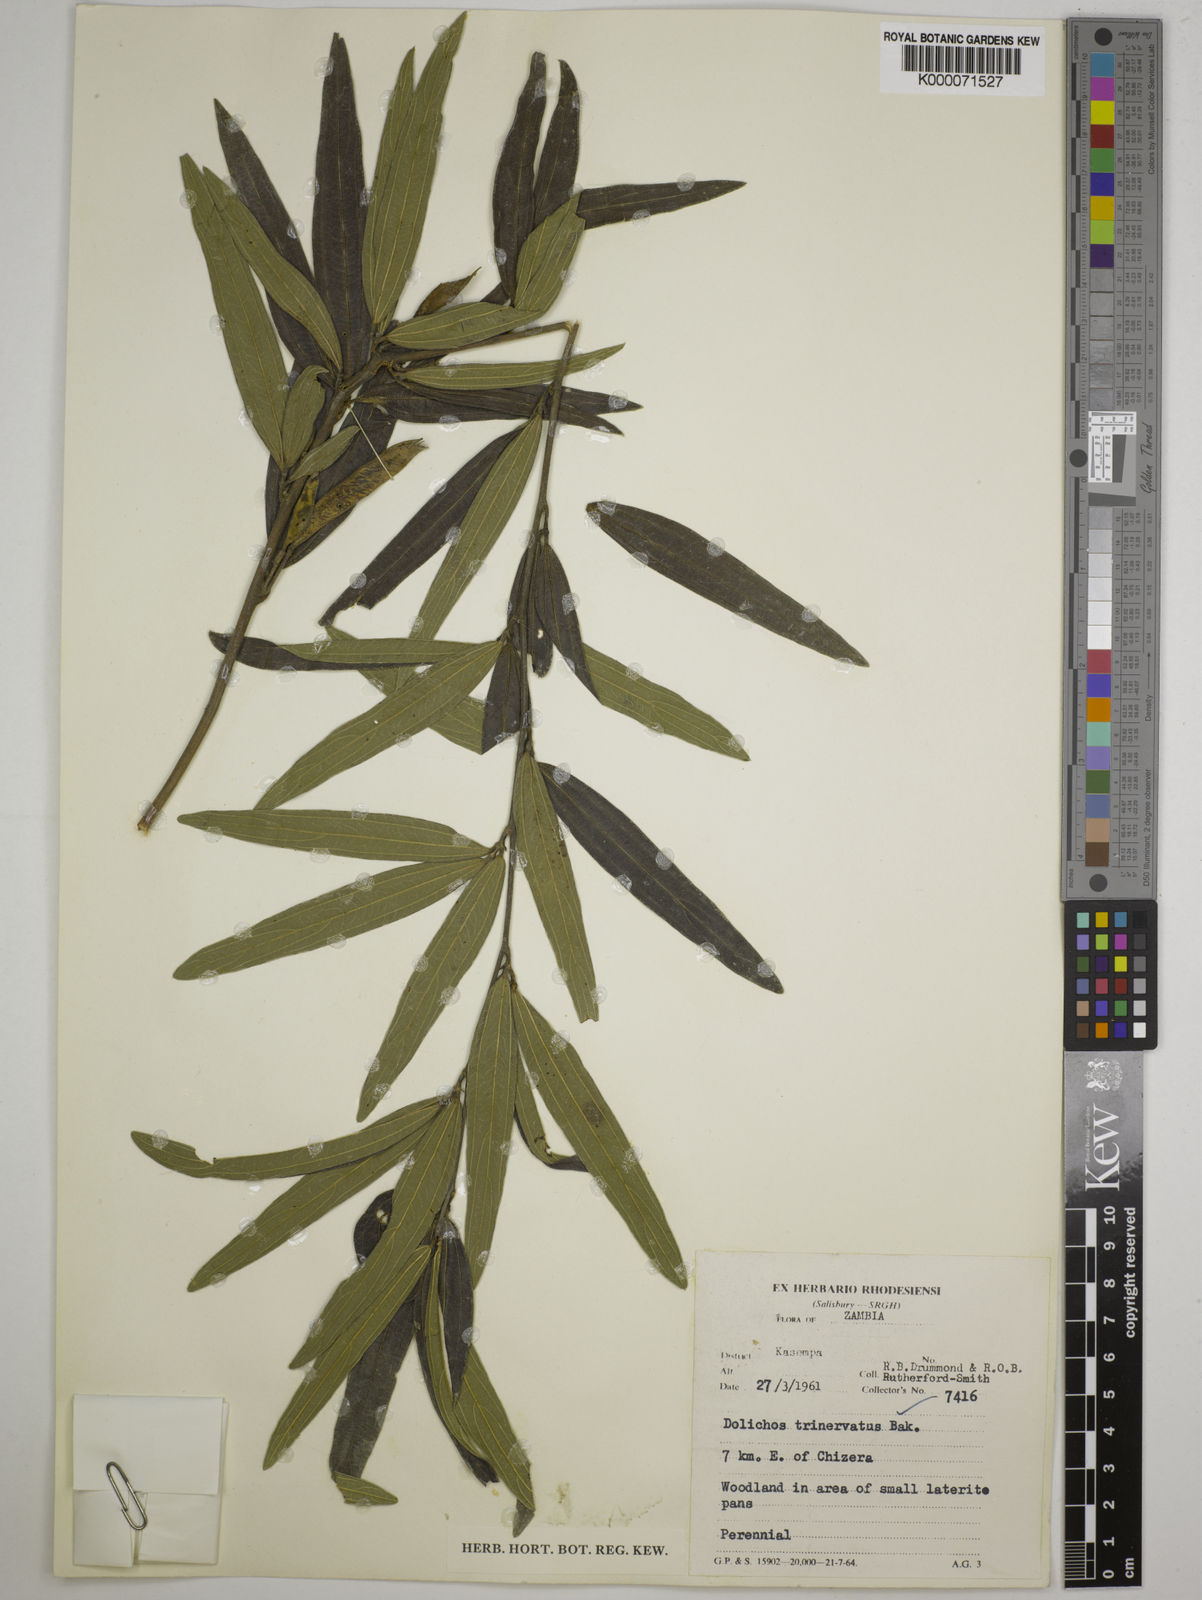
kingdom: Plantae
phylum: Tracheophyta
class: Magnoliopsida
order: Fabales
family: Fabaceae
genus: Dolichos
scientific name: Dolichos trinervatus
